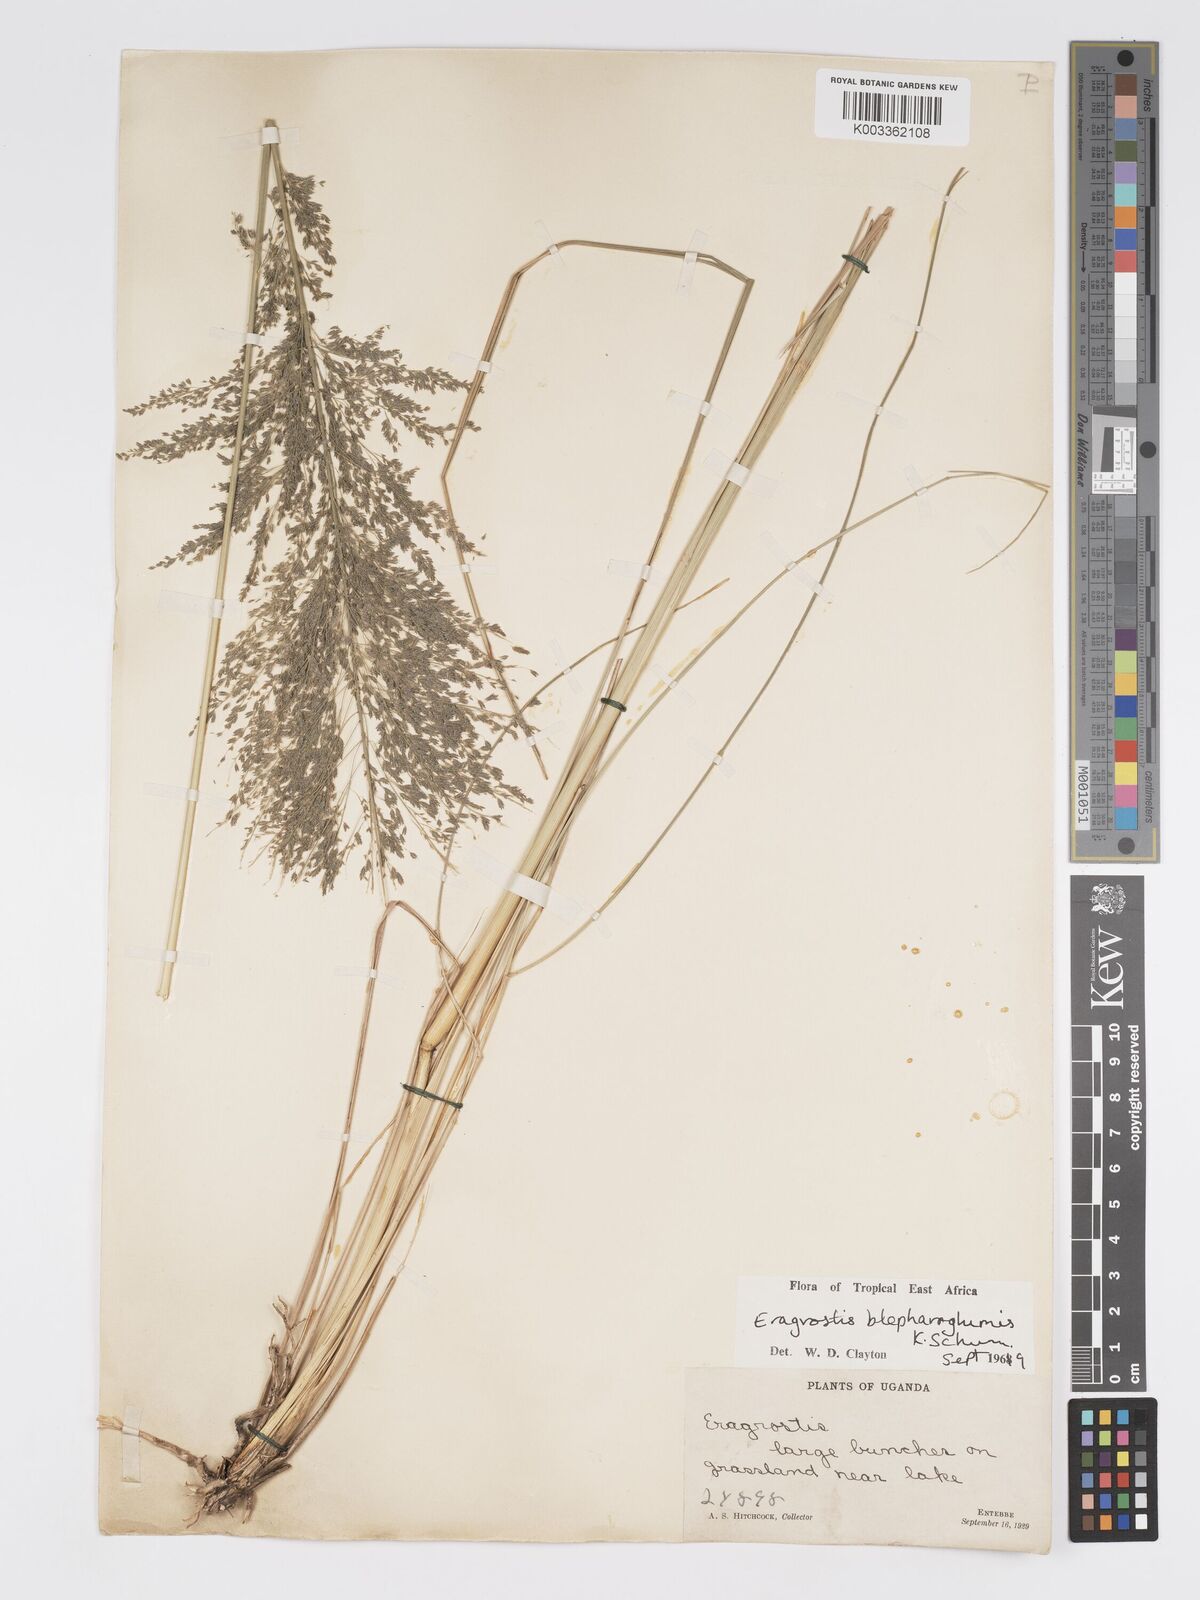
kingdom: Plantae
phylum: Tracheophyta
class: Liliopsida
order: Poales
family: Poaceae
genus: Eragrostis
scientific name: Eragrostis olivacea
